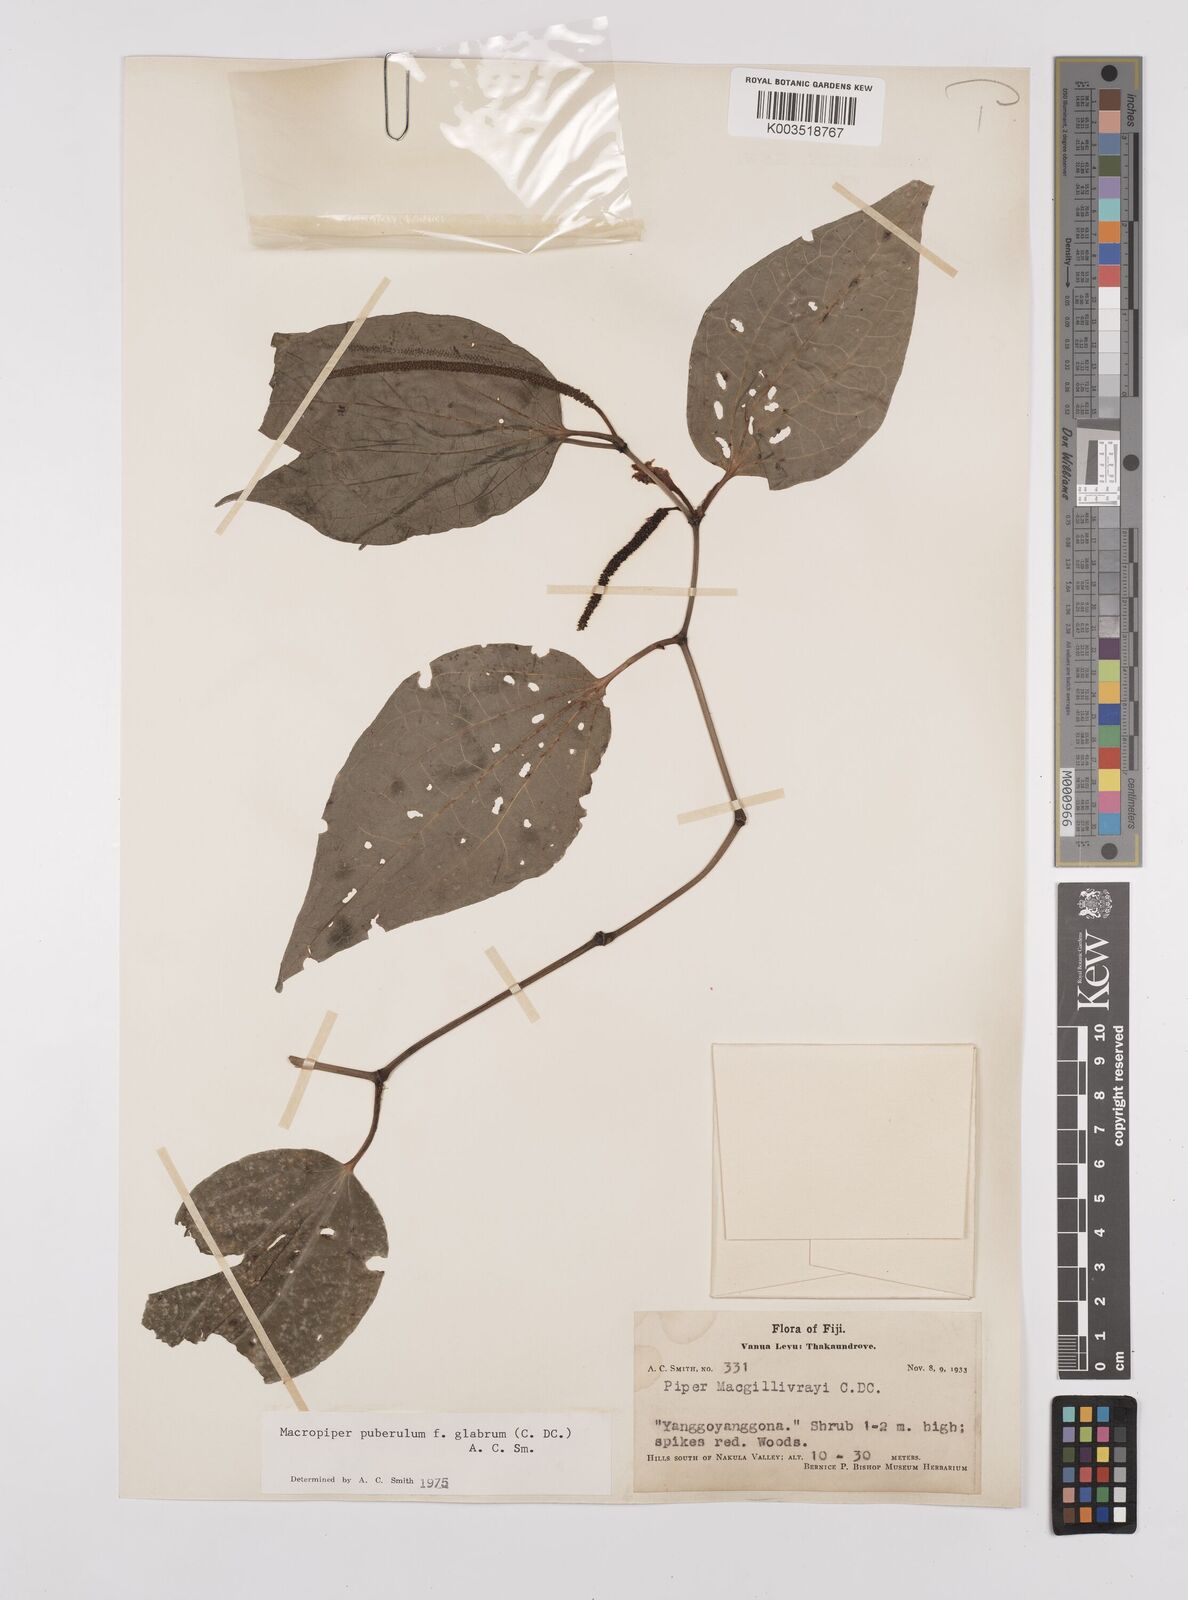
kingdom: Plantae
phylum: Tracheophyta
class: Magnoliopsida
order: Piperales
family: Piperaceae
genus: Macropiper
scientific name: Macropiper puberulum
